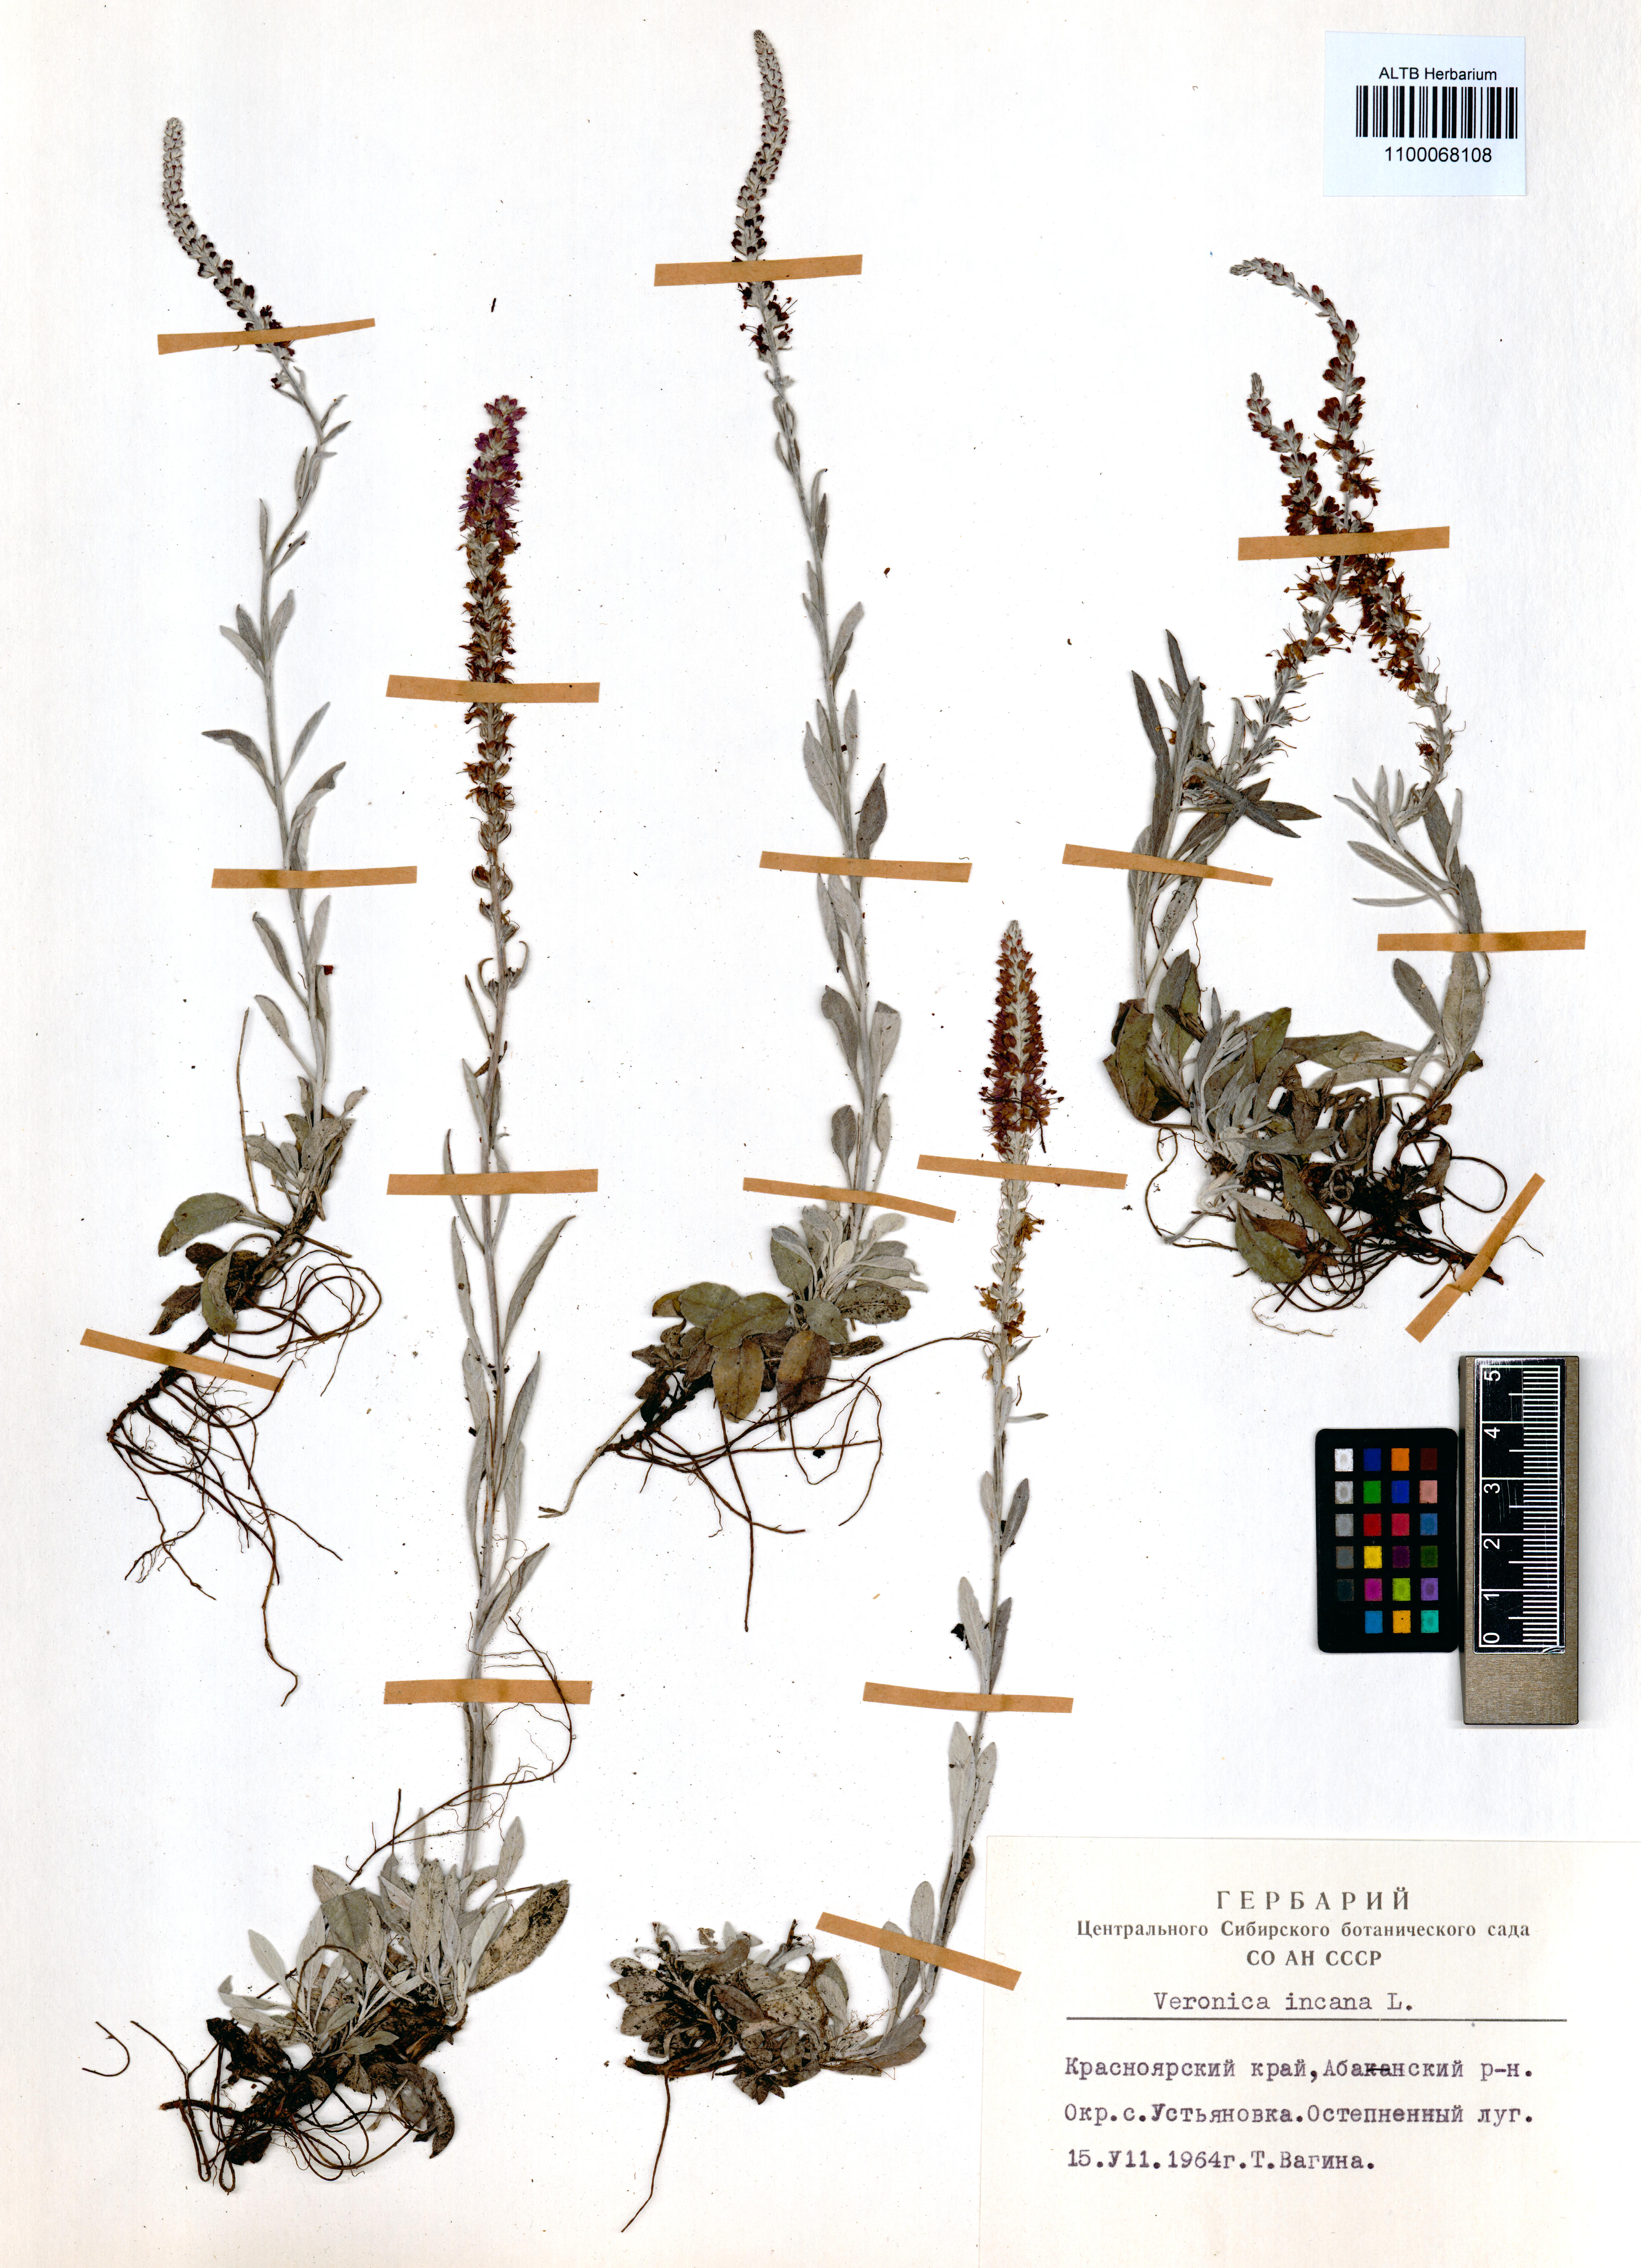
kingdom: Plantae
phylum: Tracheophyta
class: Magnoliopsida
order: Lamiales
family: Plantaginaceae
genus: Veronica
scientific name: Veronica incana
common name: Silver speedwell
